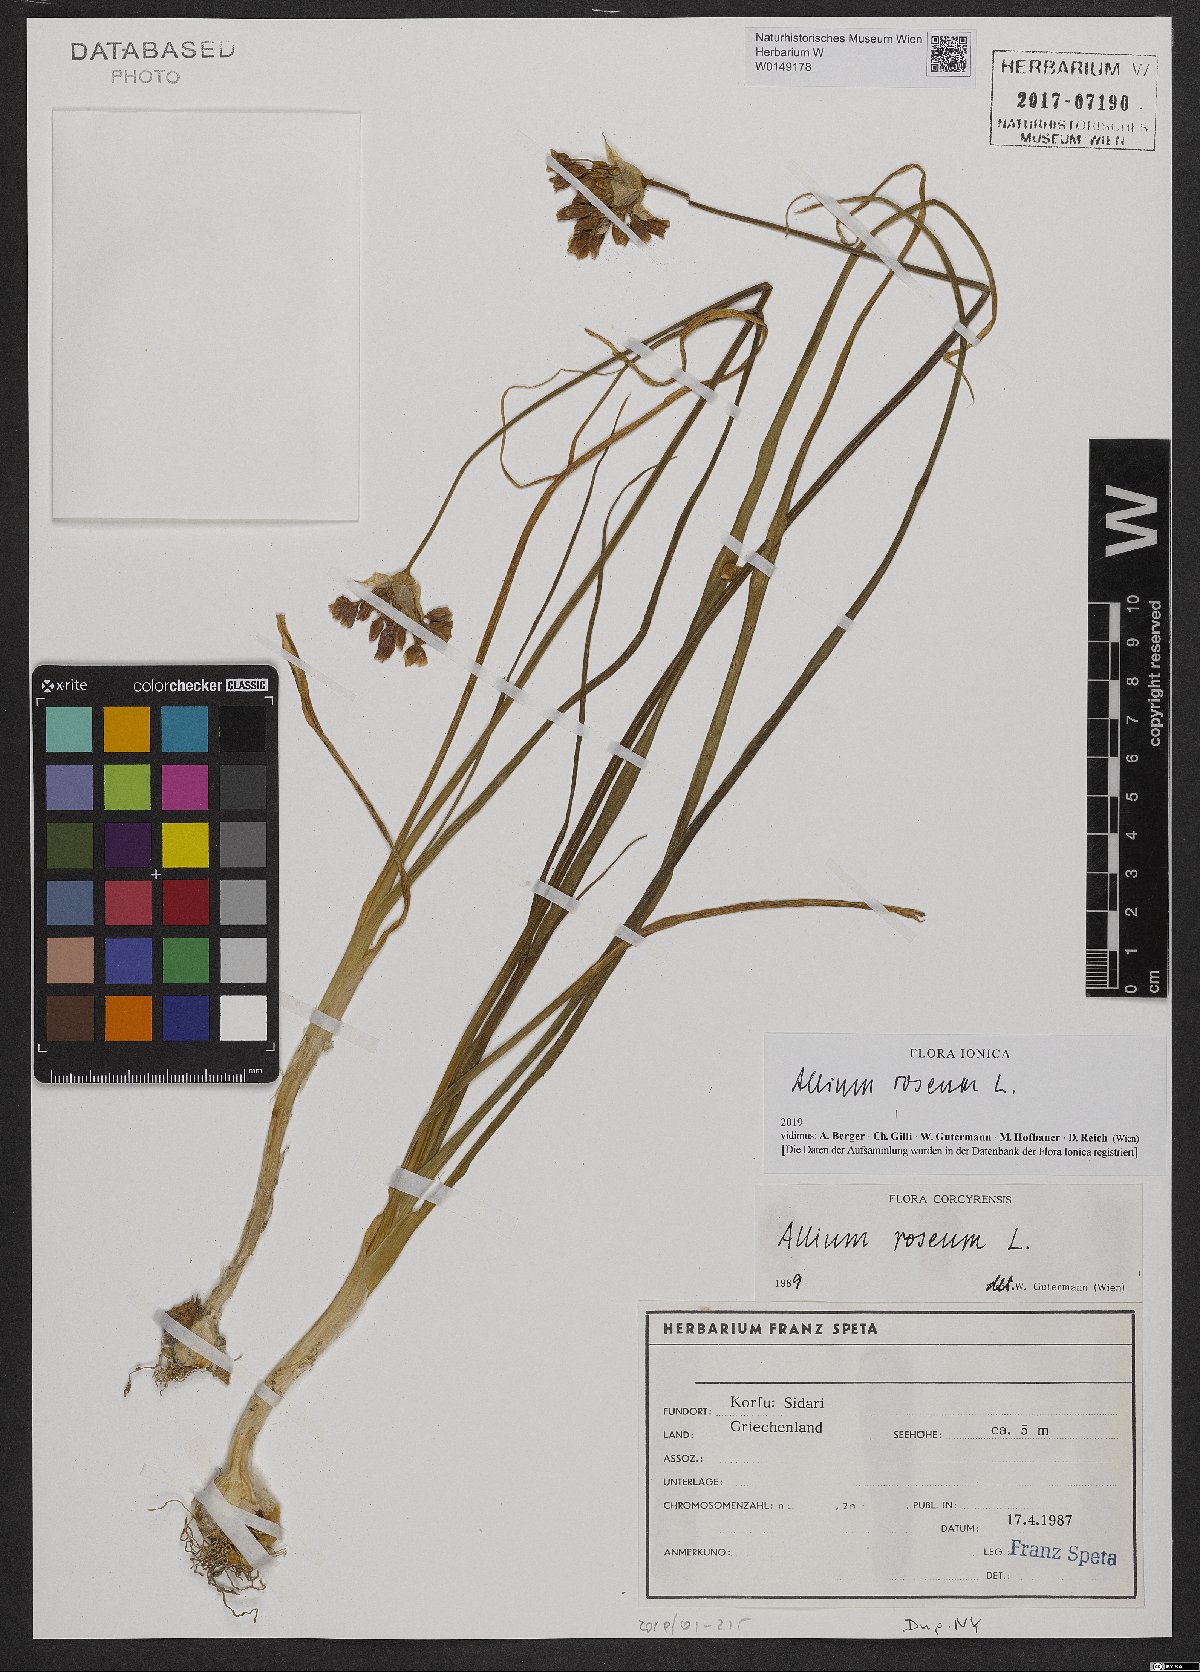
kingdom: Plantae
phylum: Tracheophyta
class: Liliopsida
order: Asparagales
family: Amaryllidaceae
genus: Allium
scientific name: Allium roseum
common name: Rosy garlic
